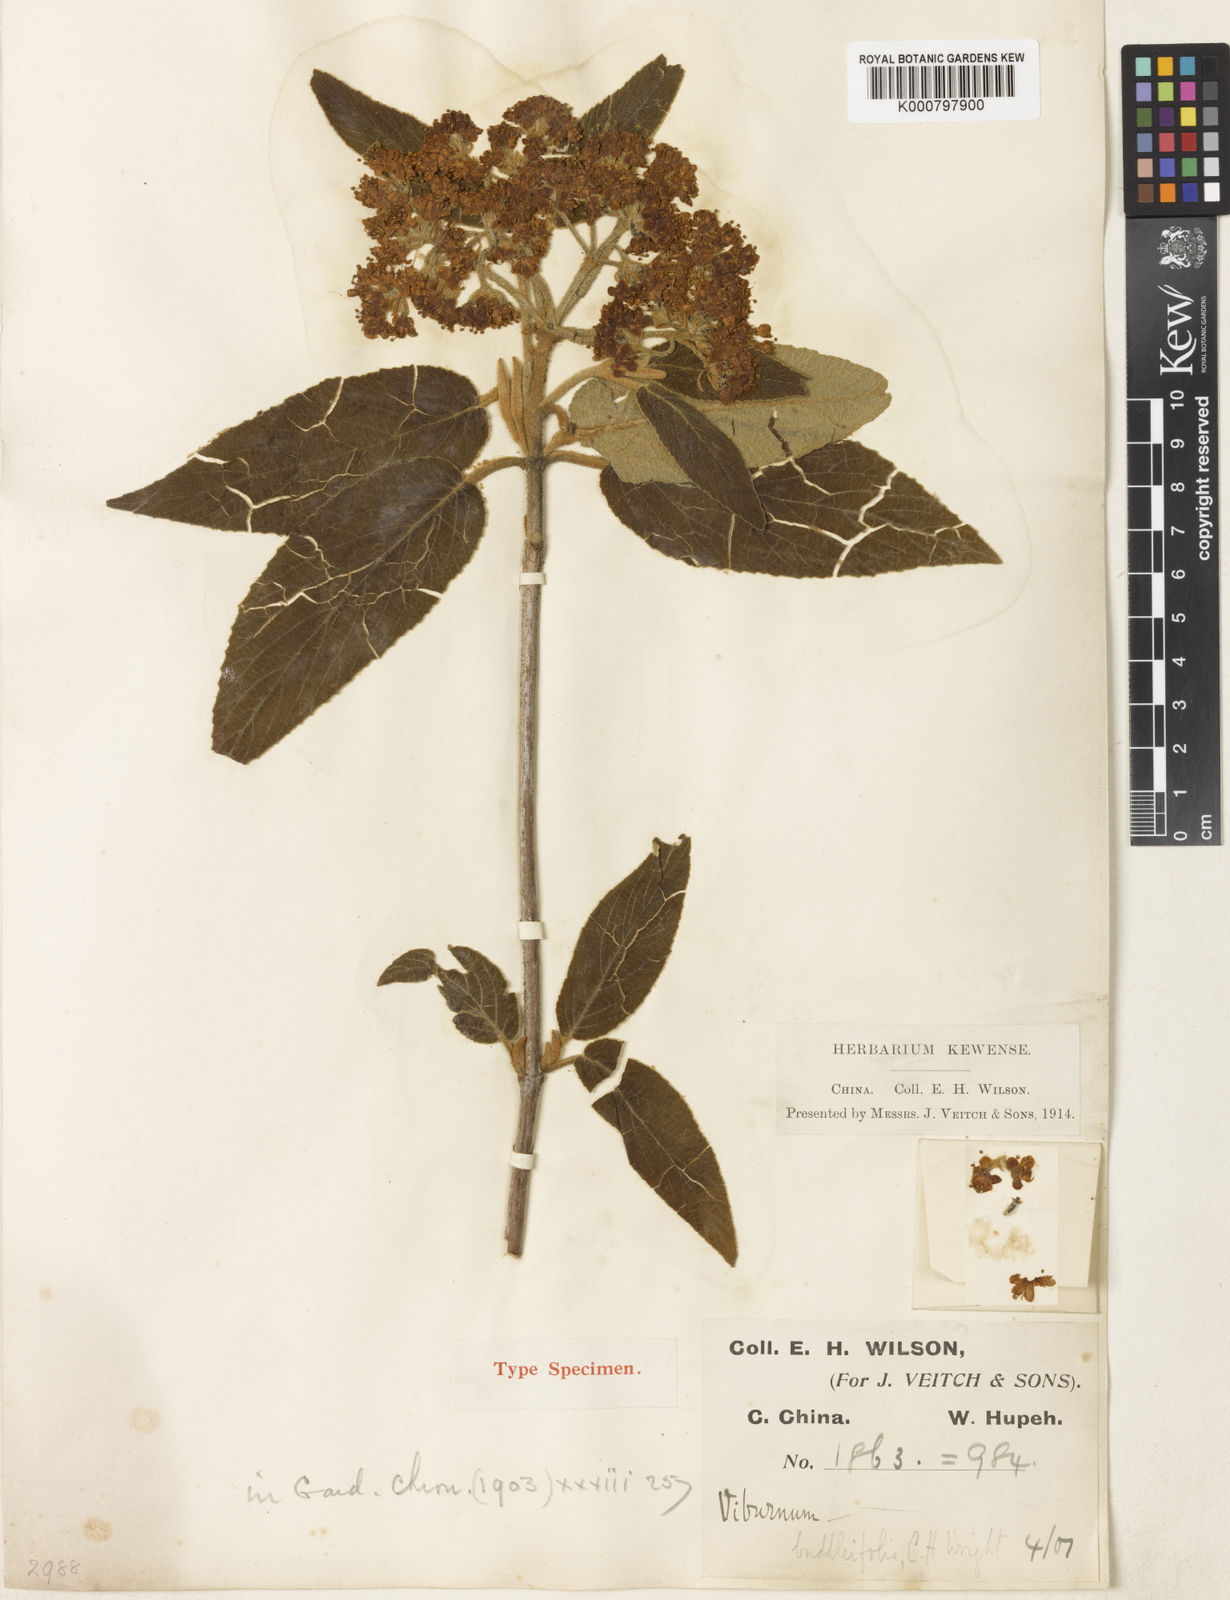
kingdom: Plantae
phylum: Tracheophyta
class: Magnoliopsida
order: Dipsacales
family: Viburnaceae
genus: Viburnum
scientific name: Viburnum buddleifolium
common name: Buddlejaleaf viburnum
